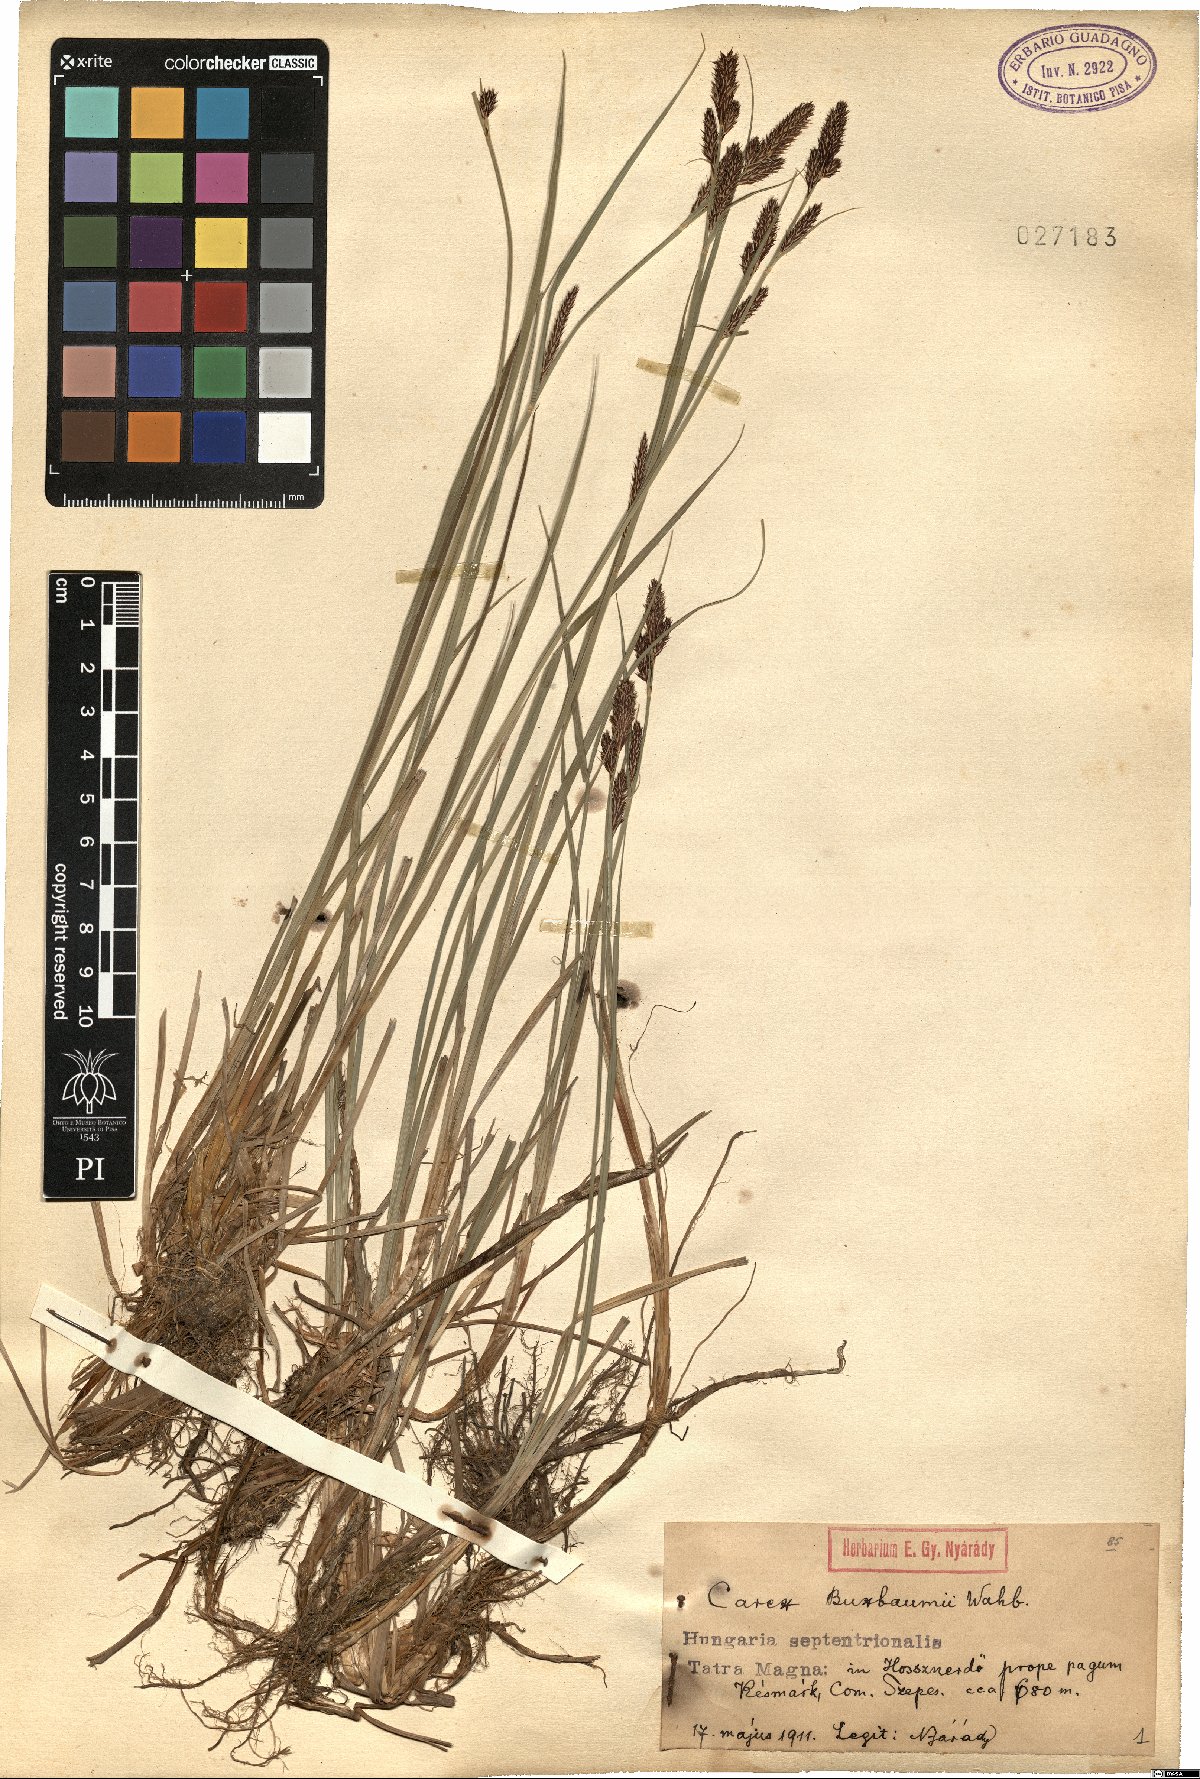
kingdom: Plantae
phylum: Tracheophyta
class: Liliopsida
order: Poales
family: Cyperaceae
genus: Carex
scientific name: Carex buxbaumii
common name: Club sedge
